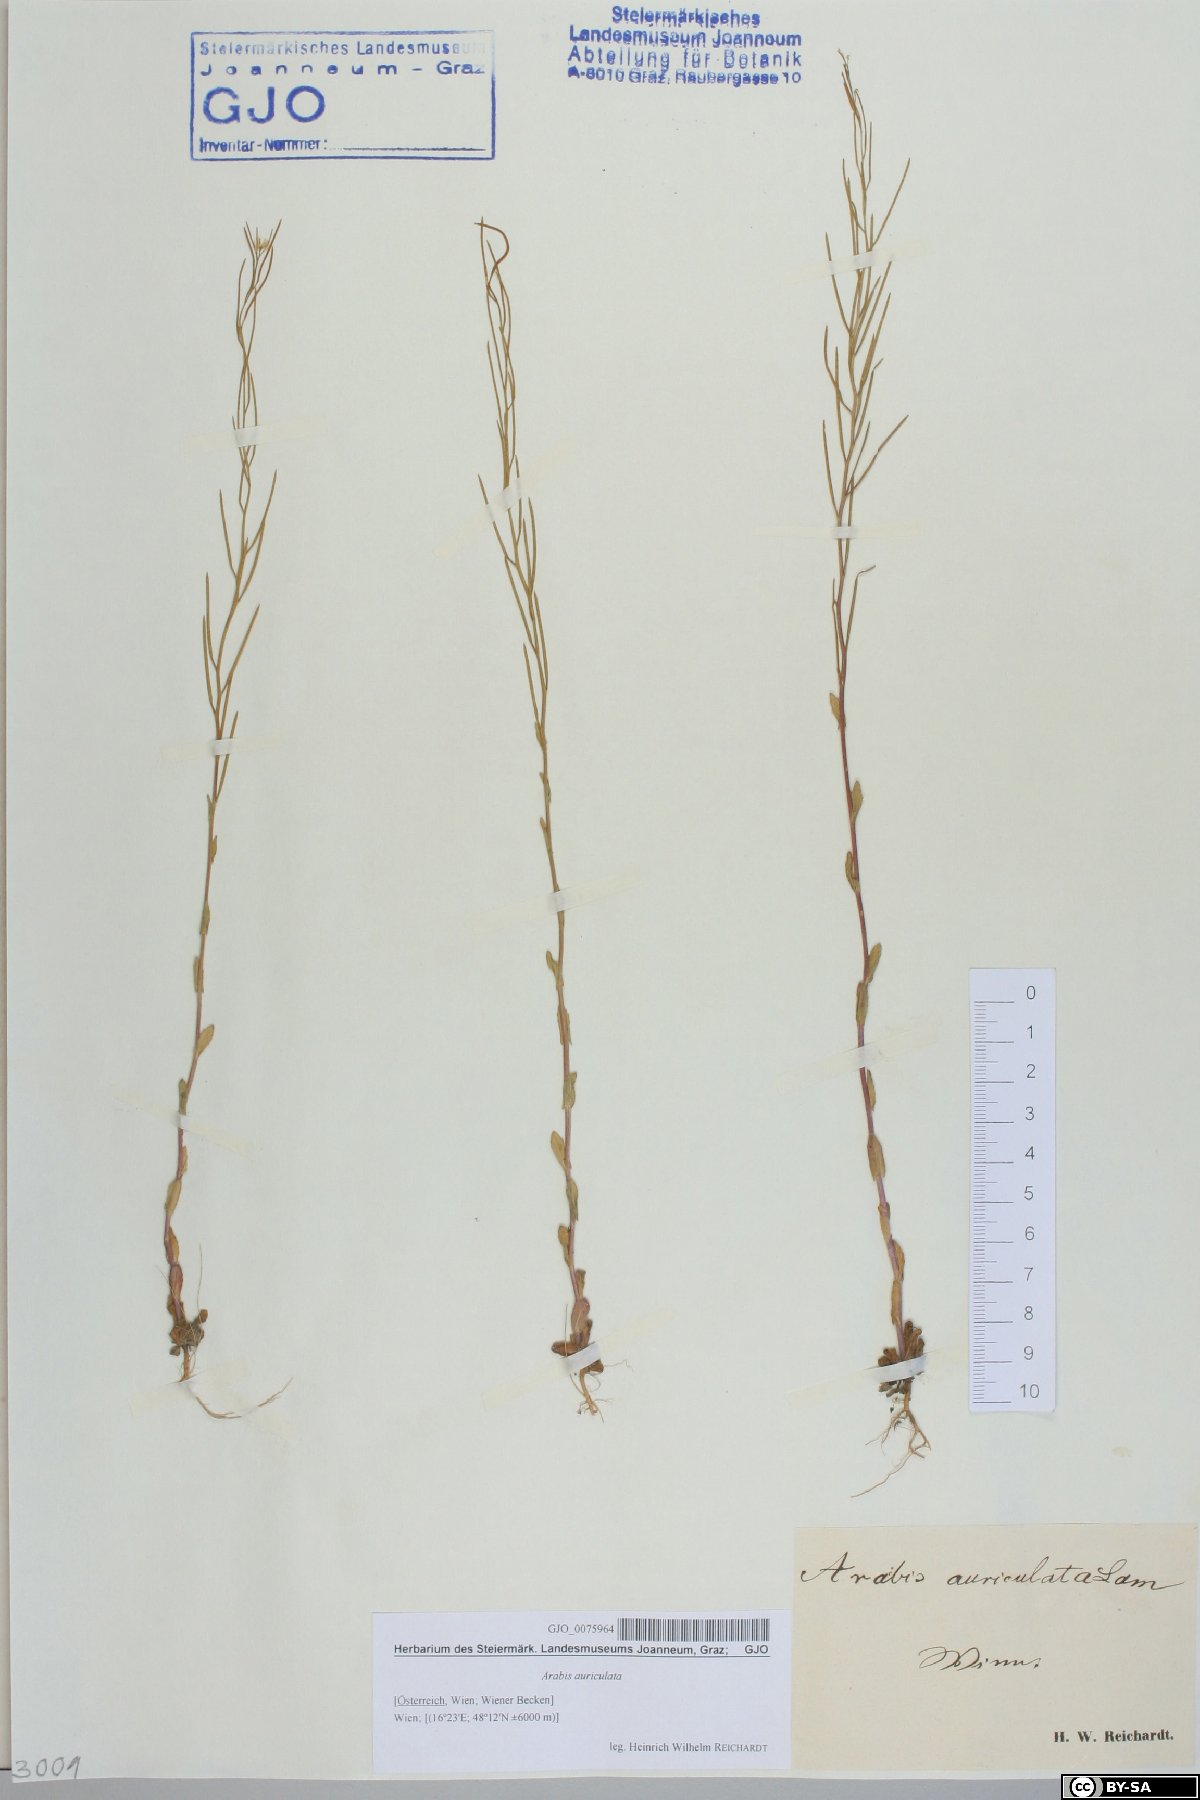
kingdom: Plantae
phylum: Tracheophyta
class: Magnoliopsida
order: Brassicales
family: Brassicaceae
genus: Arabis
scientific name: Arabis auriculata
